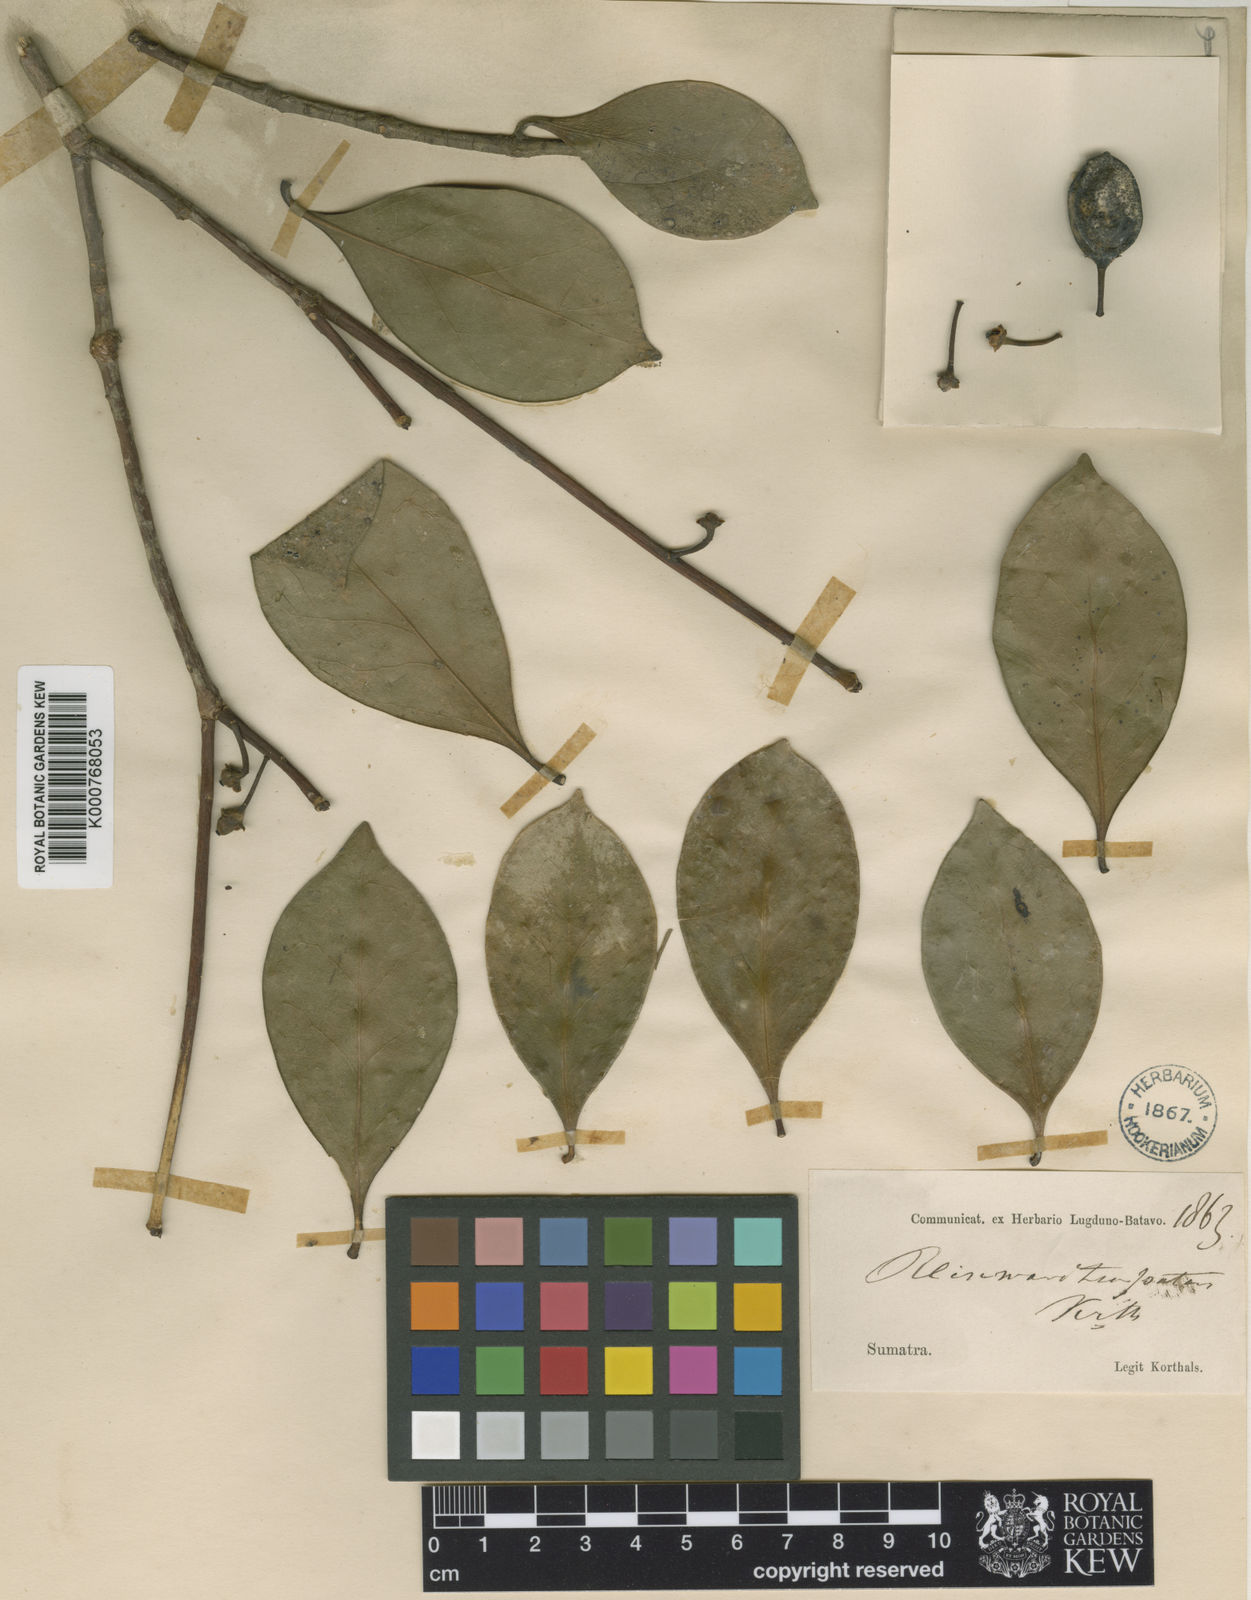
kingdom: Plantae
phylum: Tracheophyta
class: Magnoliopsida
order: Ericales
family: Pentaphylacaceae
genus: Ternstroemia
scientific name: Ternstroemia patens
